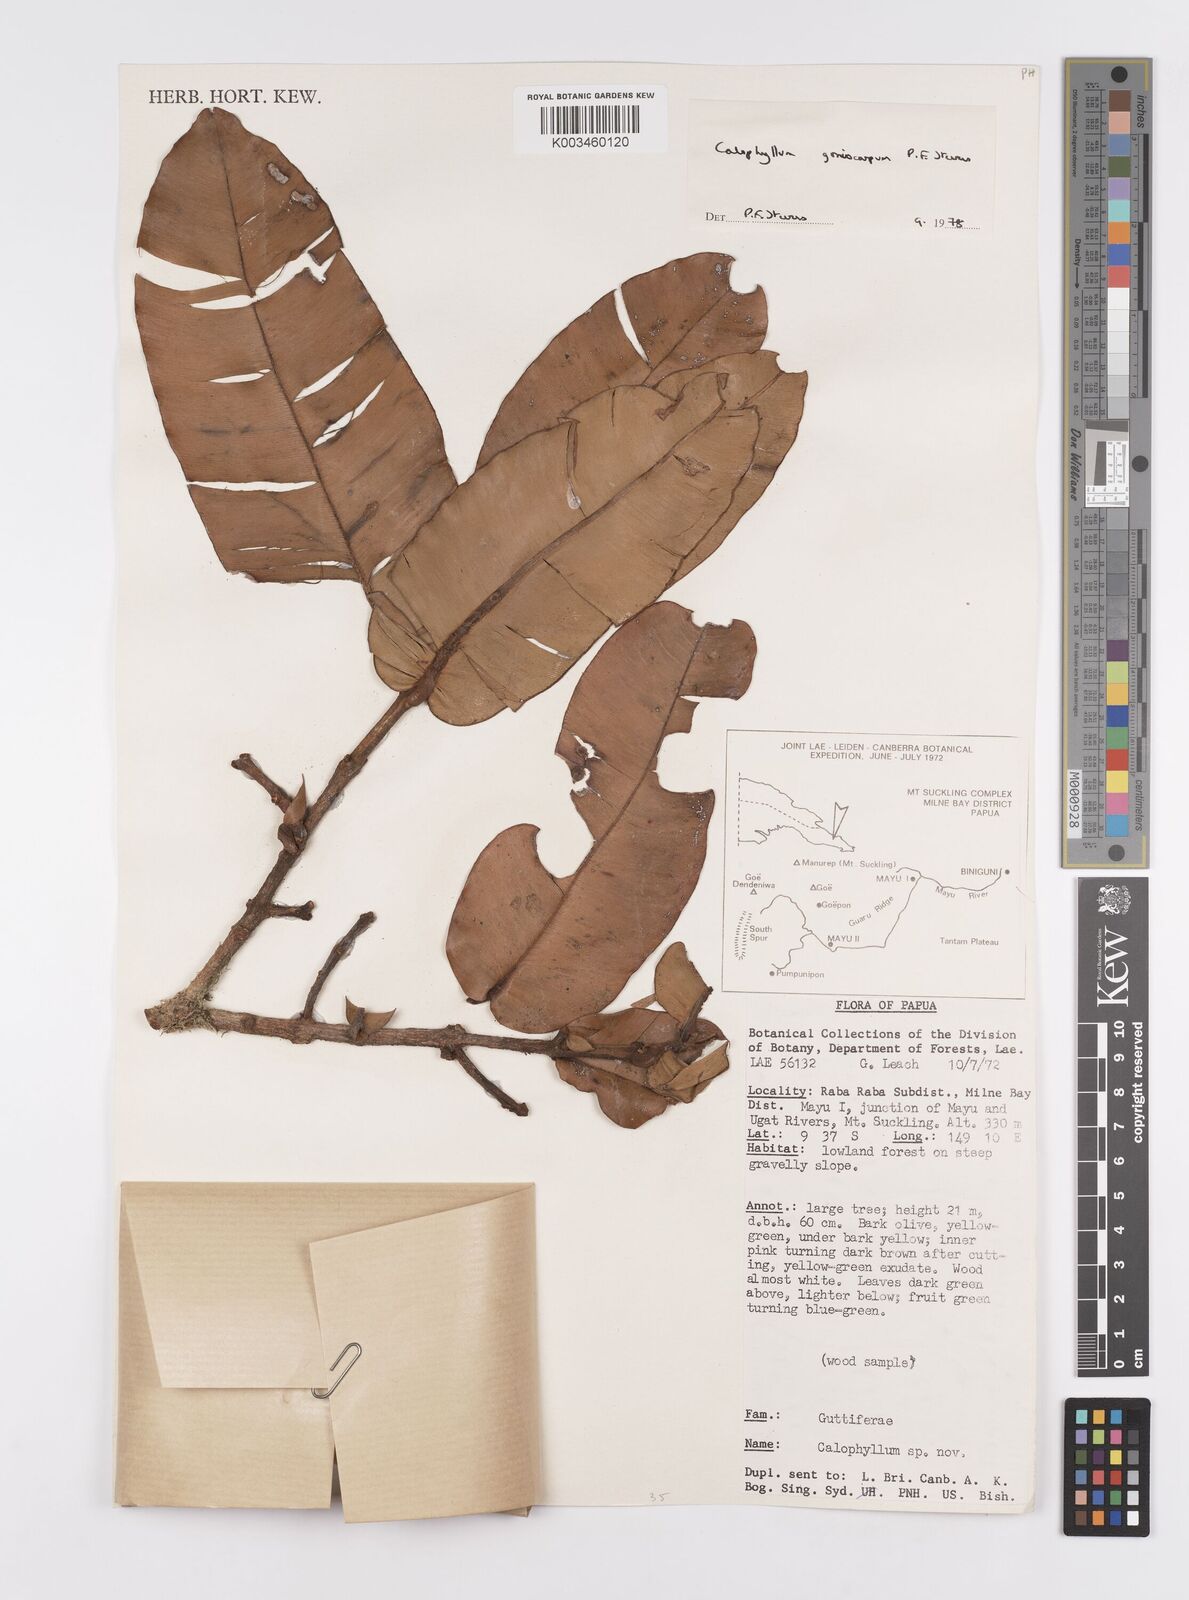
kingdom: Plantae
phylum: Tracheophyta
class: Magnoliopsida
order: Malpighiales
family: Calophyllaceae
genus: Calophyllum
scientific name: Calophyllum goniocarpum
